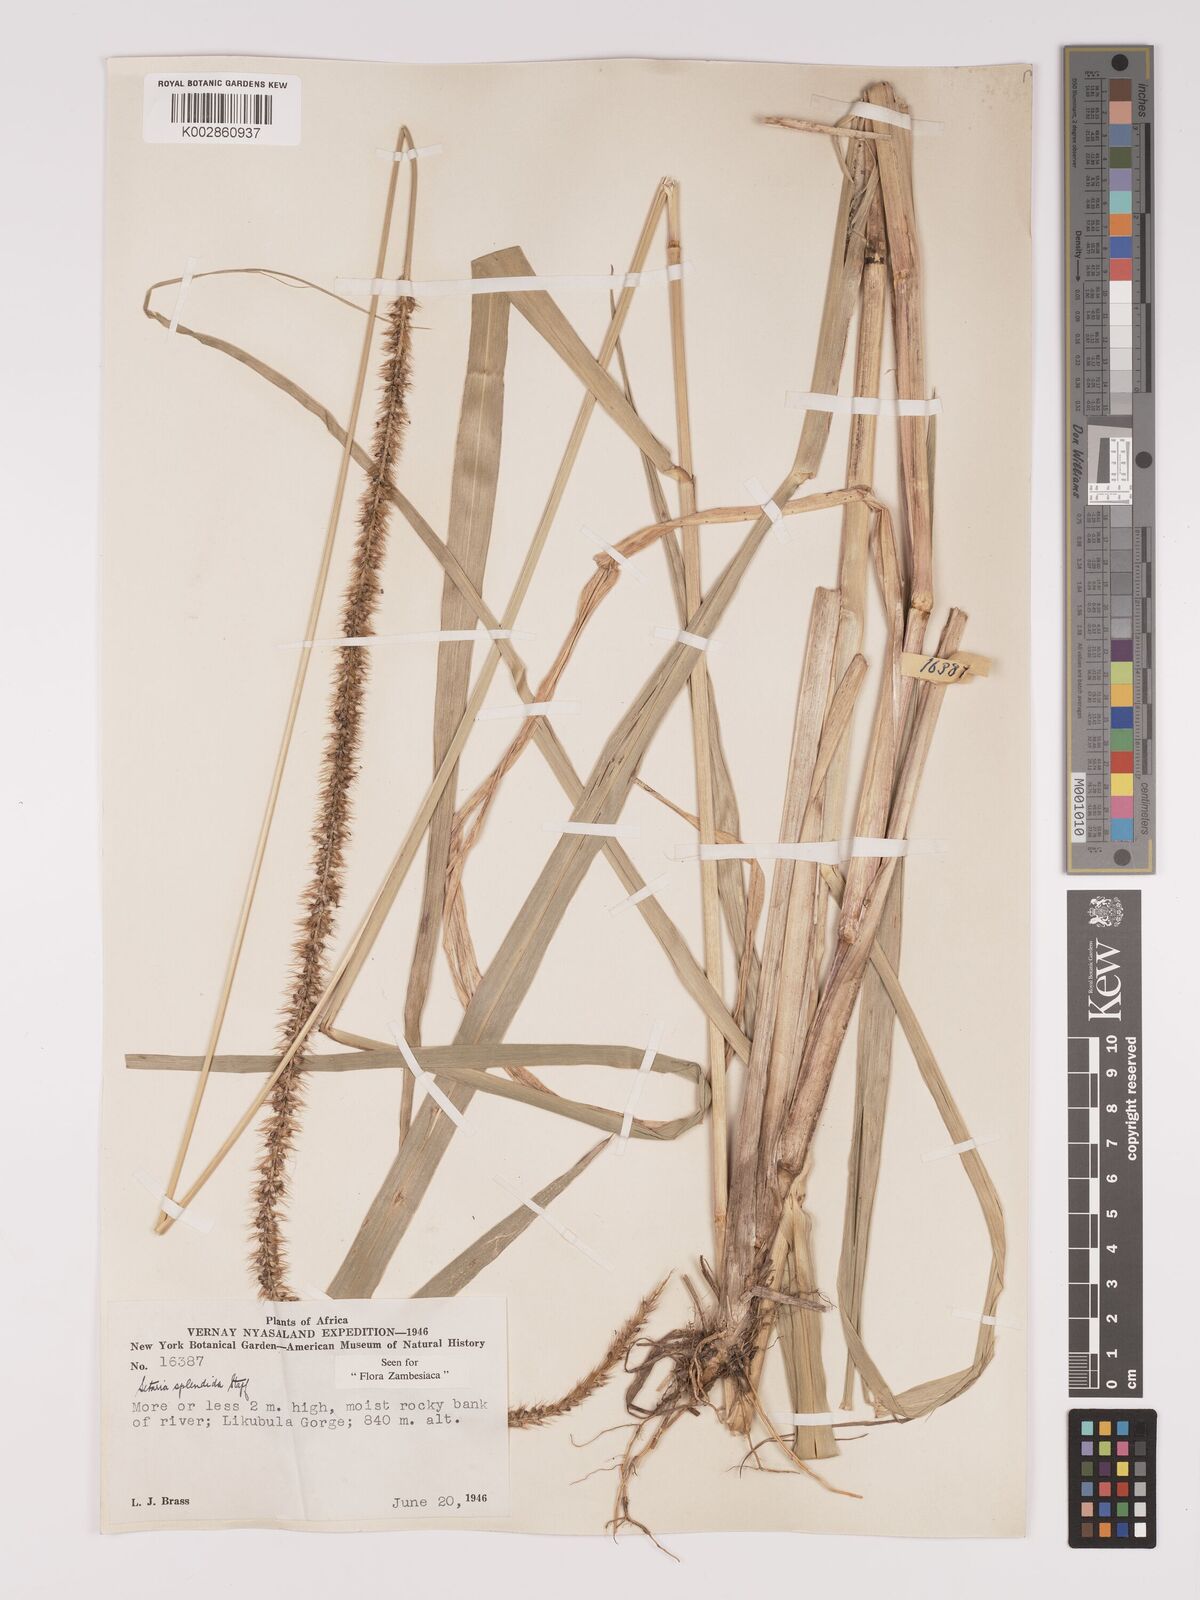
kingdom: Plantae
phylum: Tracheophyta
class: Liliopsida
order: Poales
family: Poaceae
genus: Setaria
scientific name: Setaria sphacelata
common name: African bristlegrass
